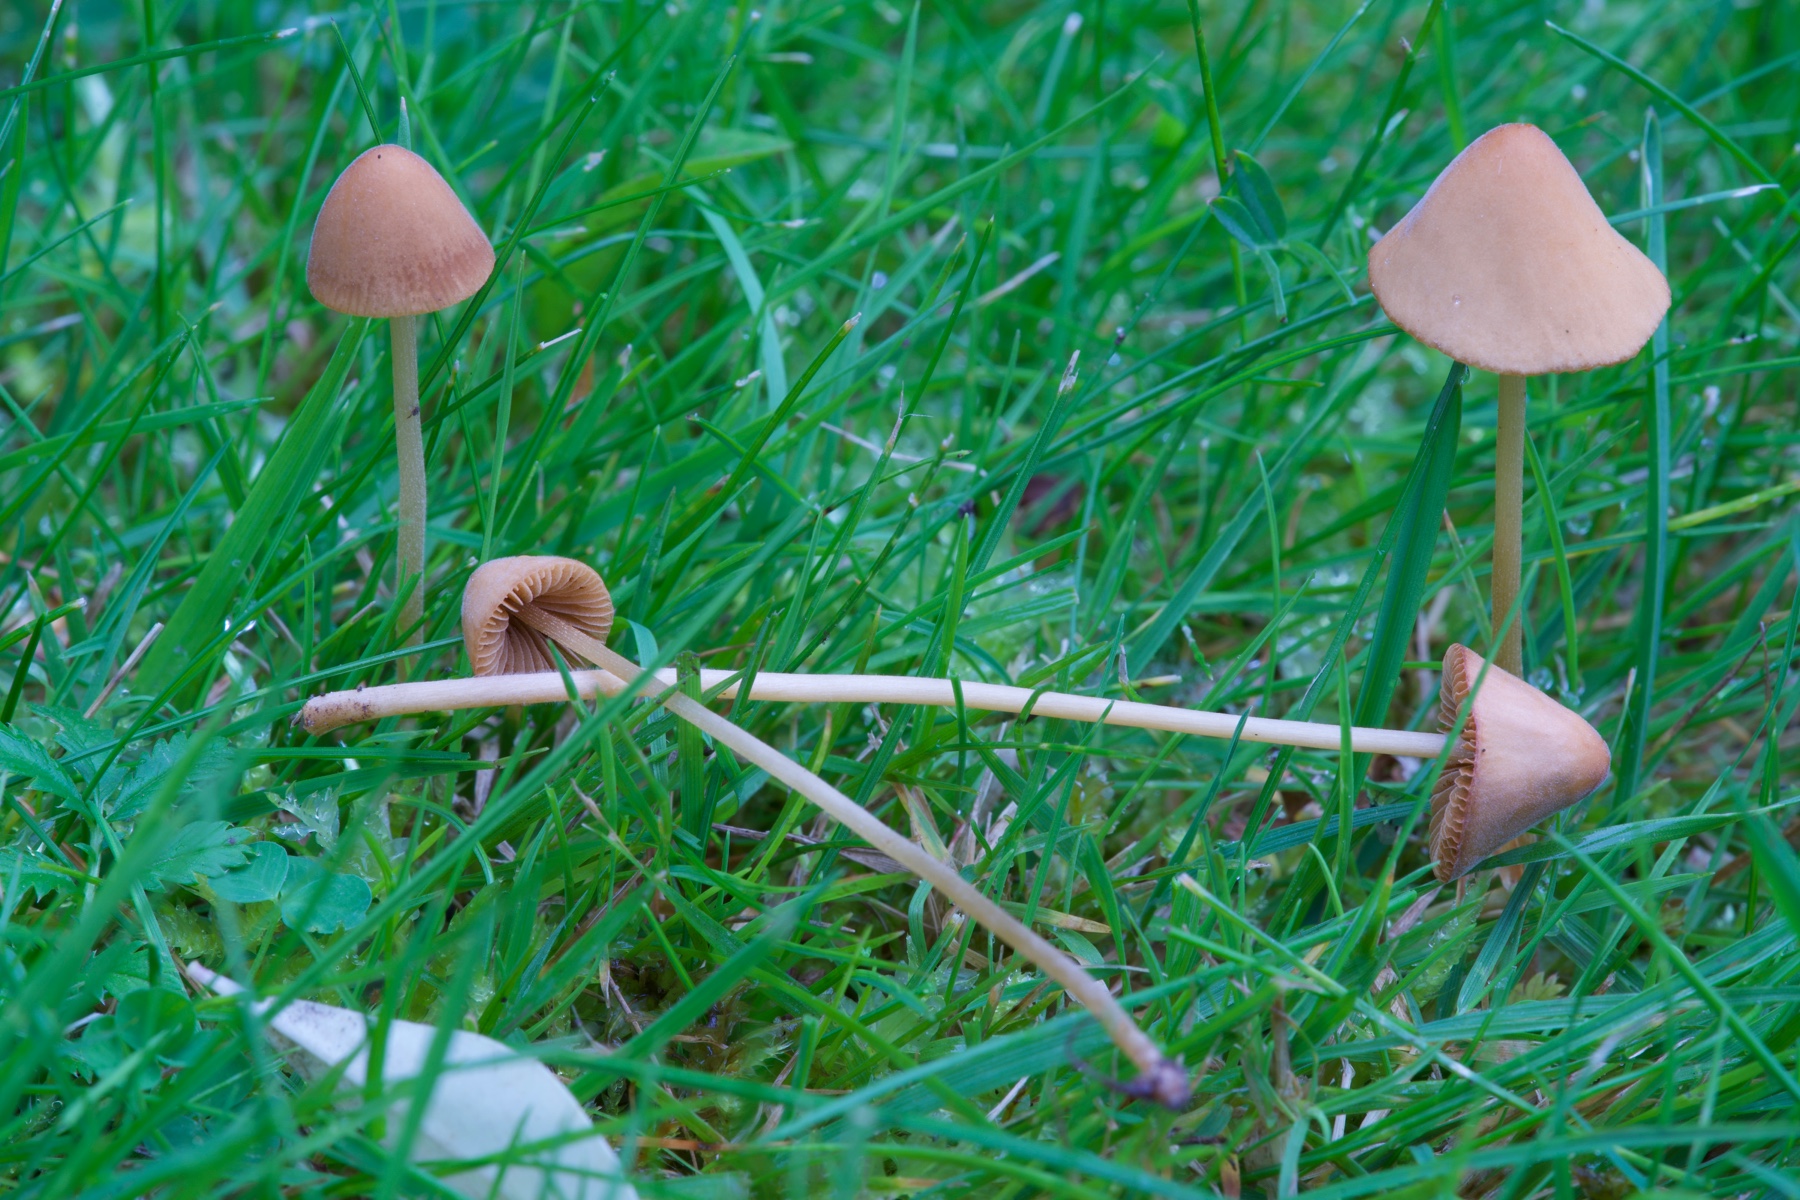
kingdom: Fungi
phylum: Basidiomycota
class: Agaricomycetes
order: Agaricales
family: Bolbitiaceae
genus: Conocybe
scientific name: Conocybe semiglobata
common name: halvkugleformet keglehat
